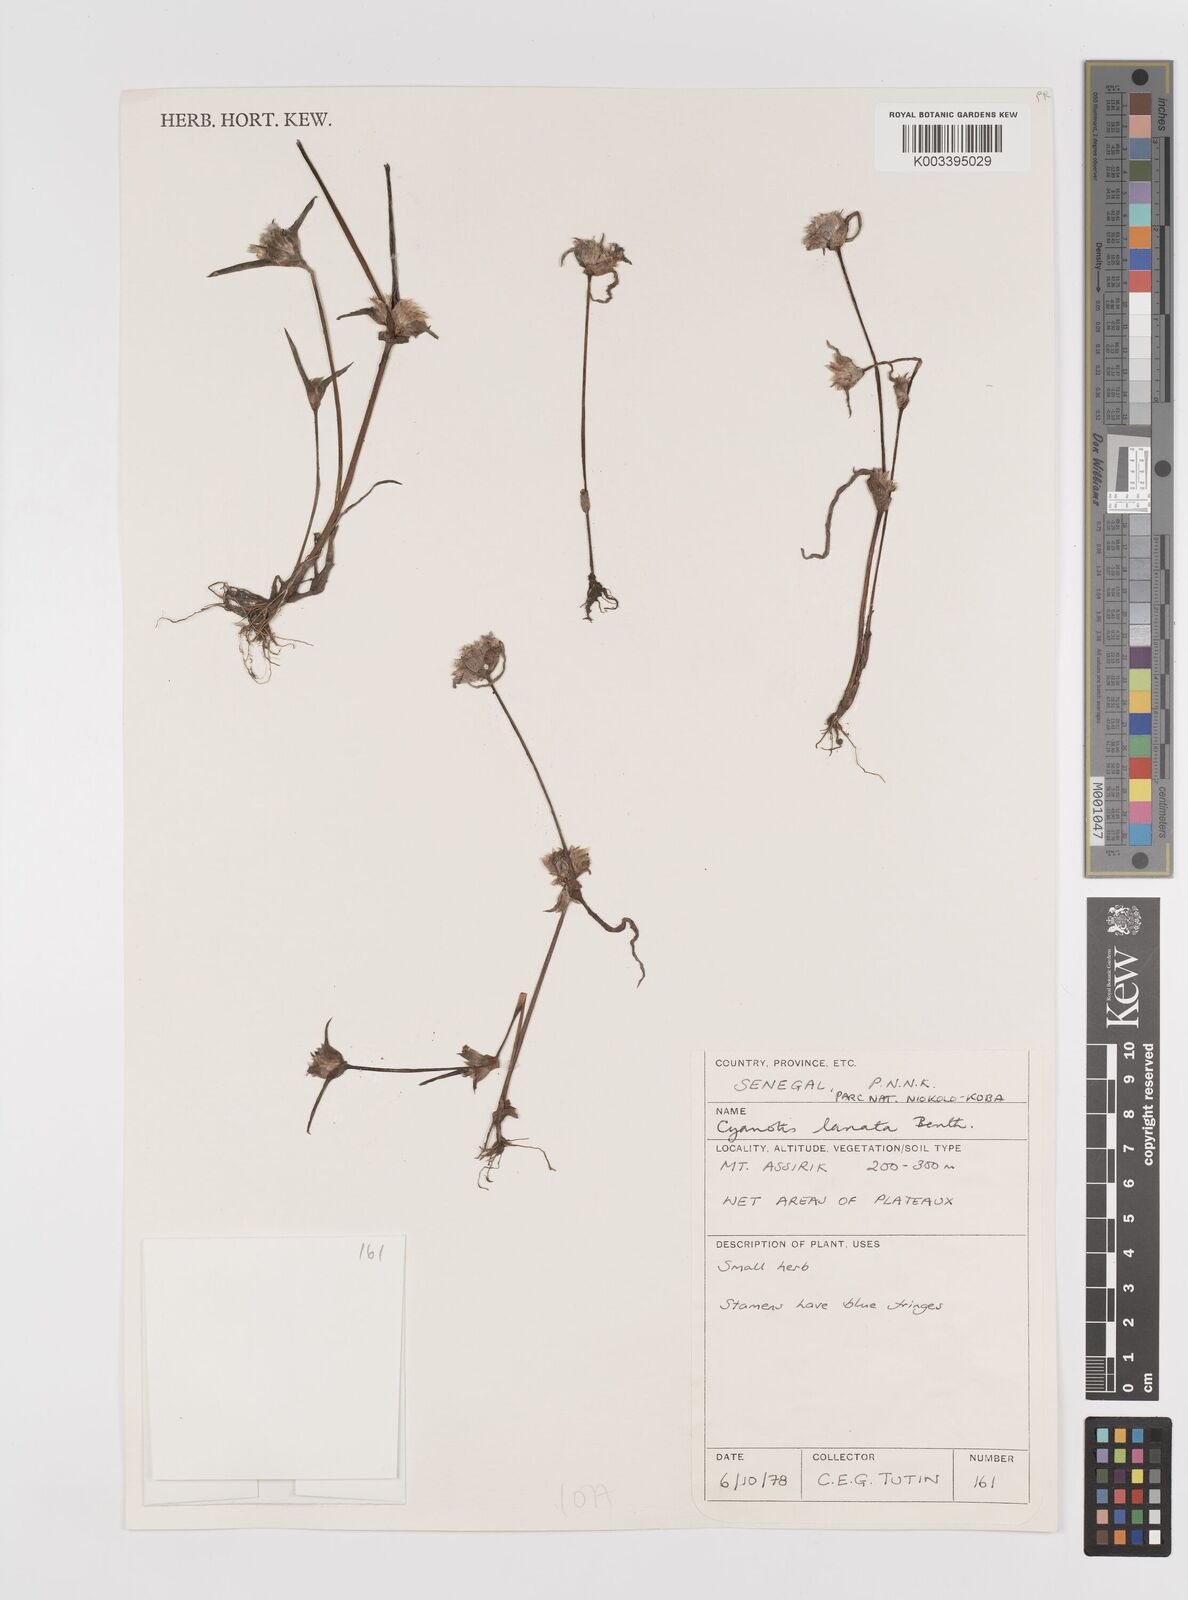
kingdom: Plantae
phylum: Tracheophyta
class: Liliopsida
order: Commelinales
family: Commelinaceae
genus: Cyanotis
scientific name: Cyanotis lanata
